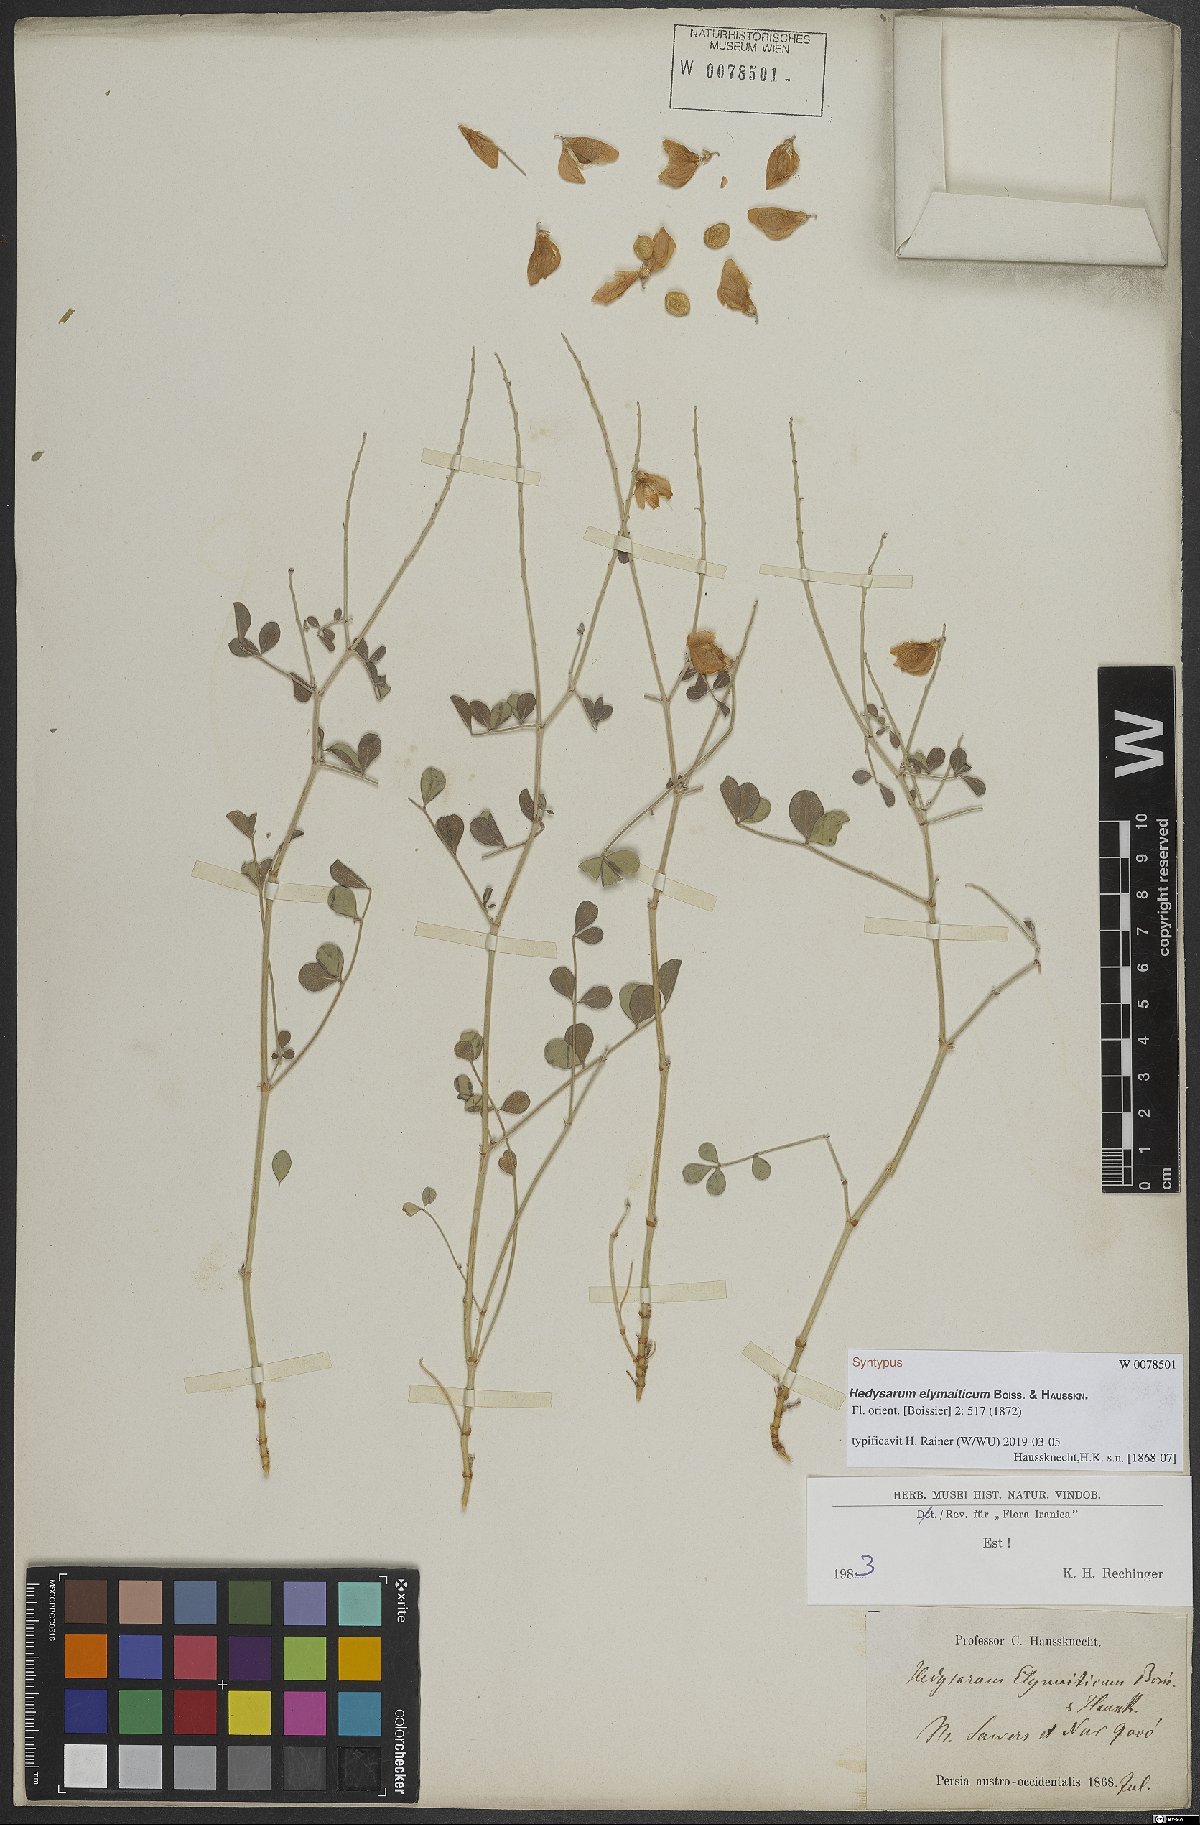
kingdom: Plantae
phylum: Tracheophyta
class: Magnoliopsida
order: Fabales
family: Fabaceae
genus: Hedysarum
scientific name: Hedysarum elymaiticum
